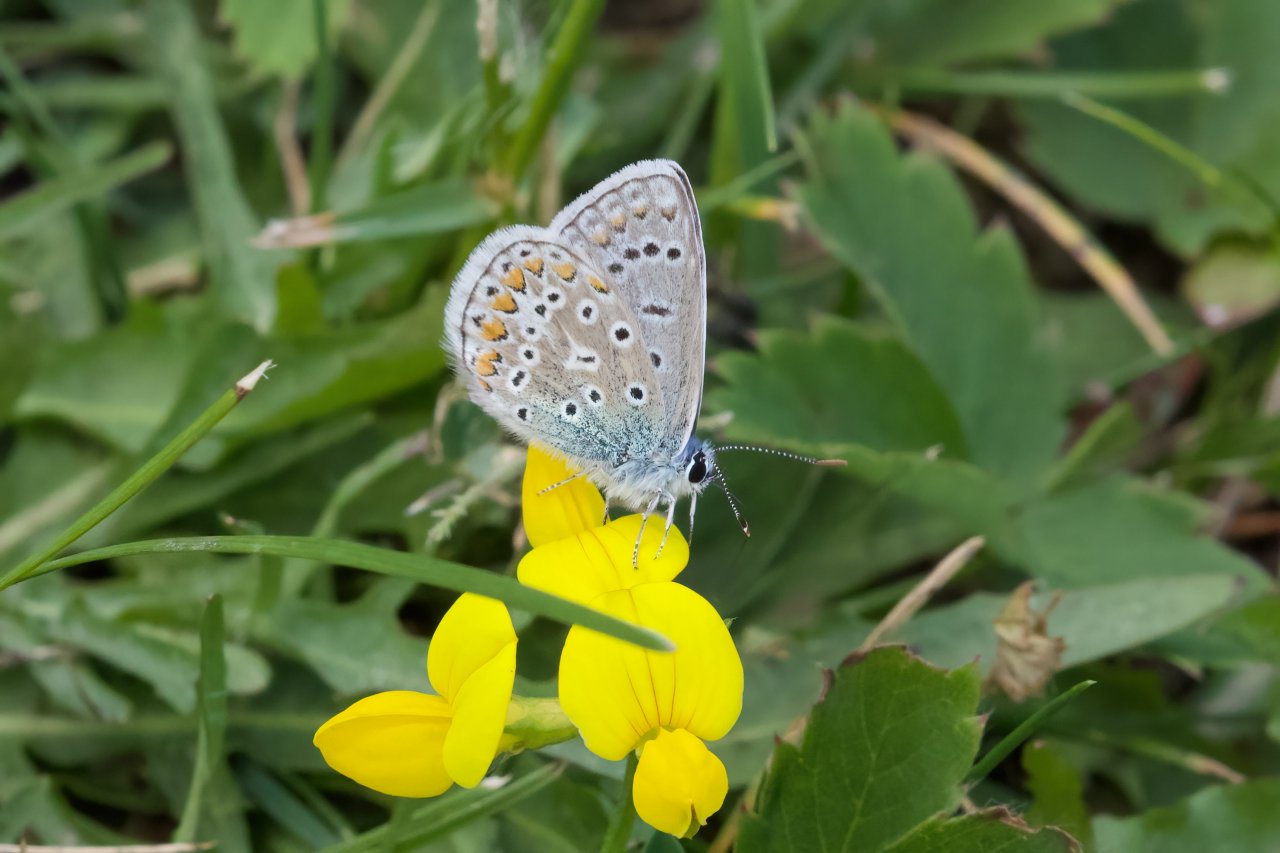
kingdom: Animalia
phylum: Arthropoda
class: Insecta
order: Lepidoptera
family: Lycaenidae
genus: Polyommatus
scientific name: Polyommatus icarus
